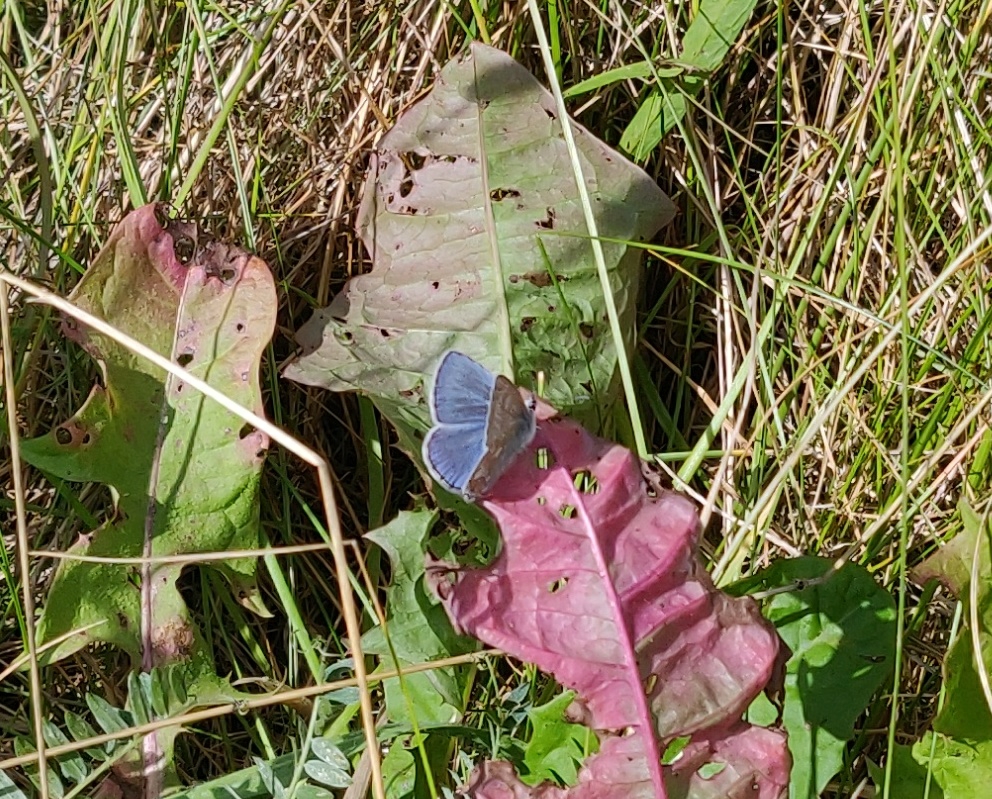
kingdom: Animalia
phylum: Arthropoda
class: Insecta
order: Lepidoptera
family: Lycaenidae
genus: Polyommatus
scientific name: Polyommatus icarus
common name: Almindelig blåfugl
